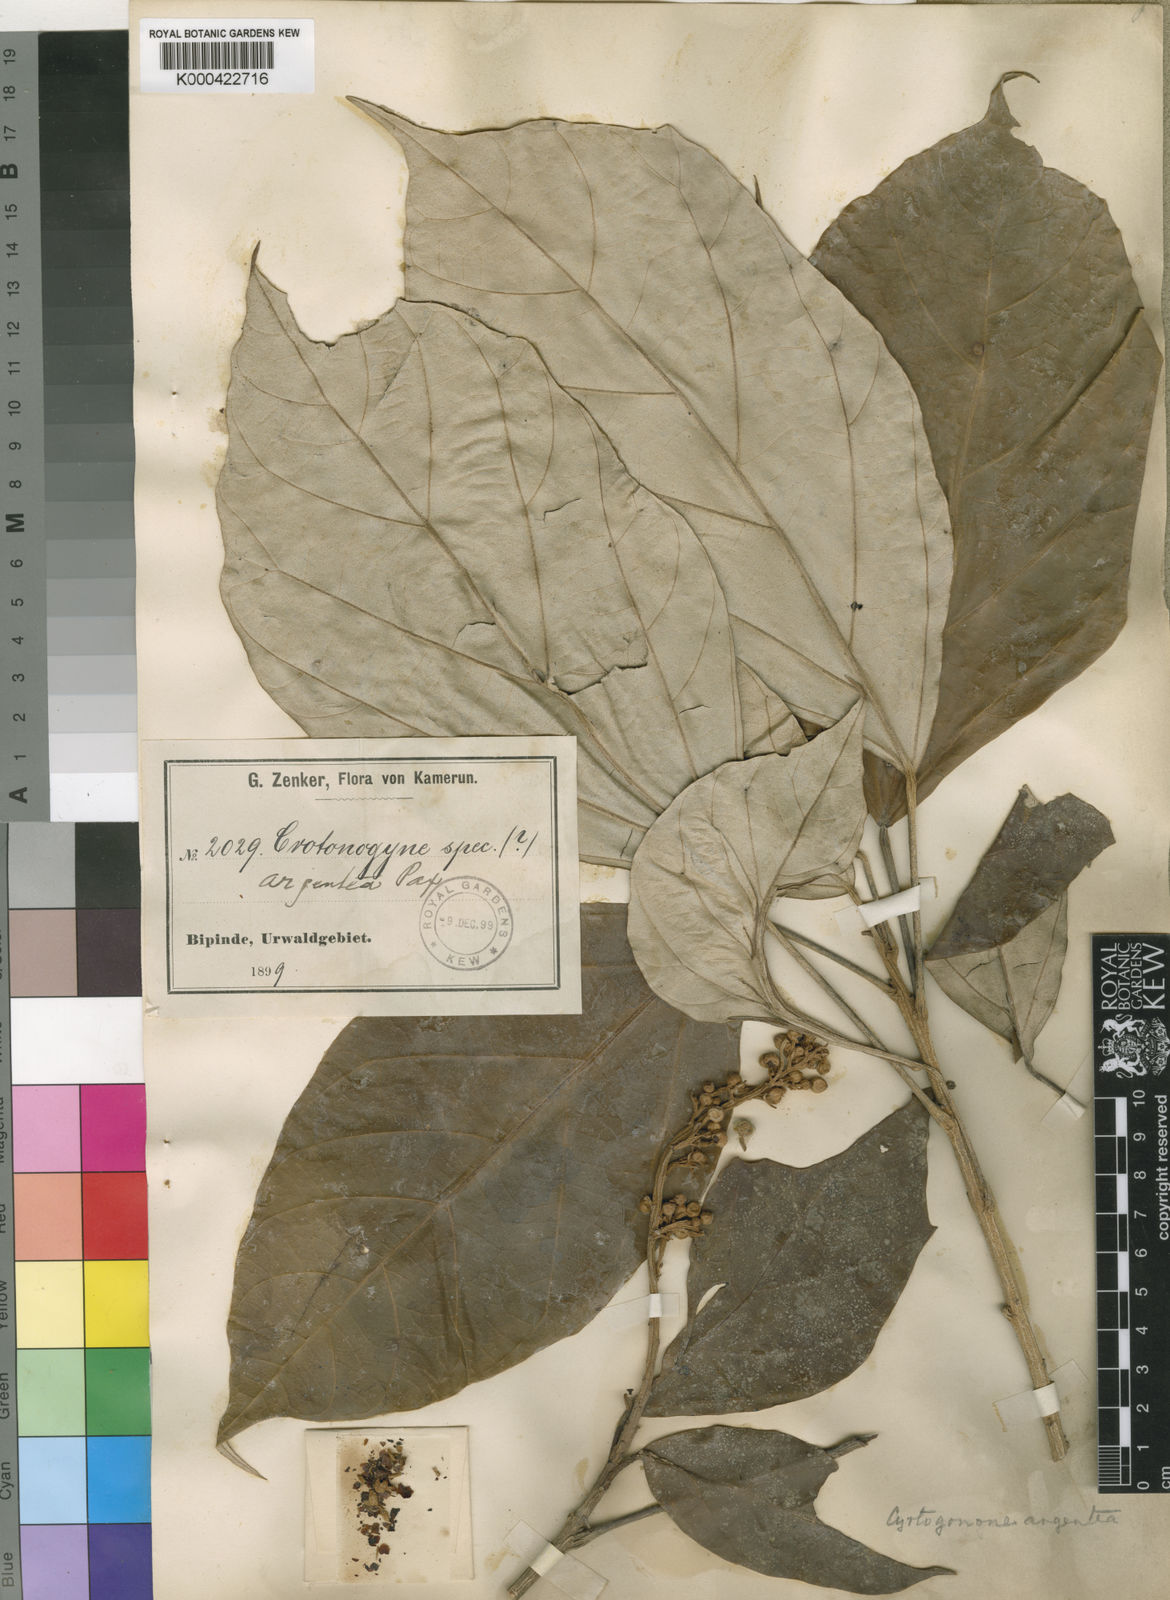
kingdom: Plantae
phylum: Tracheophyta
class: Magnoliopsida
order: Malpighiales
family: Euphorbiaceae
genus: Cyrtogonone
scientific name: Cyrtogonone argentea
